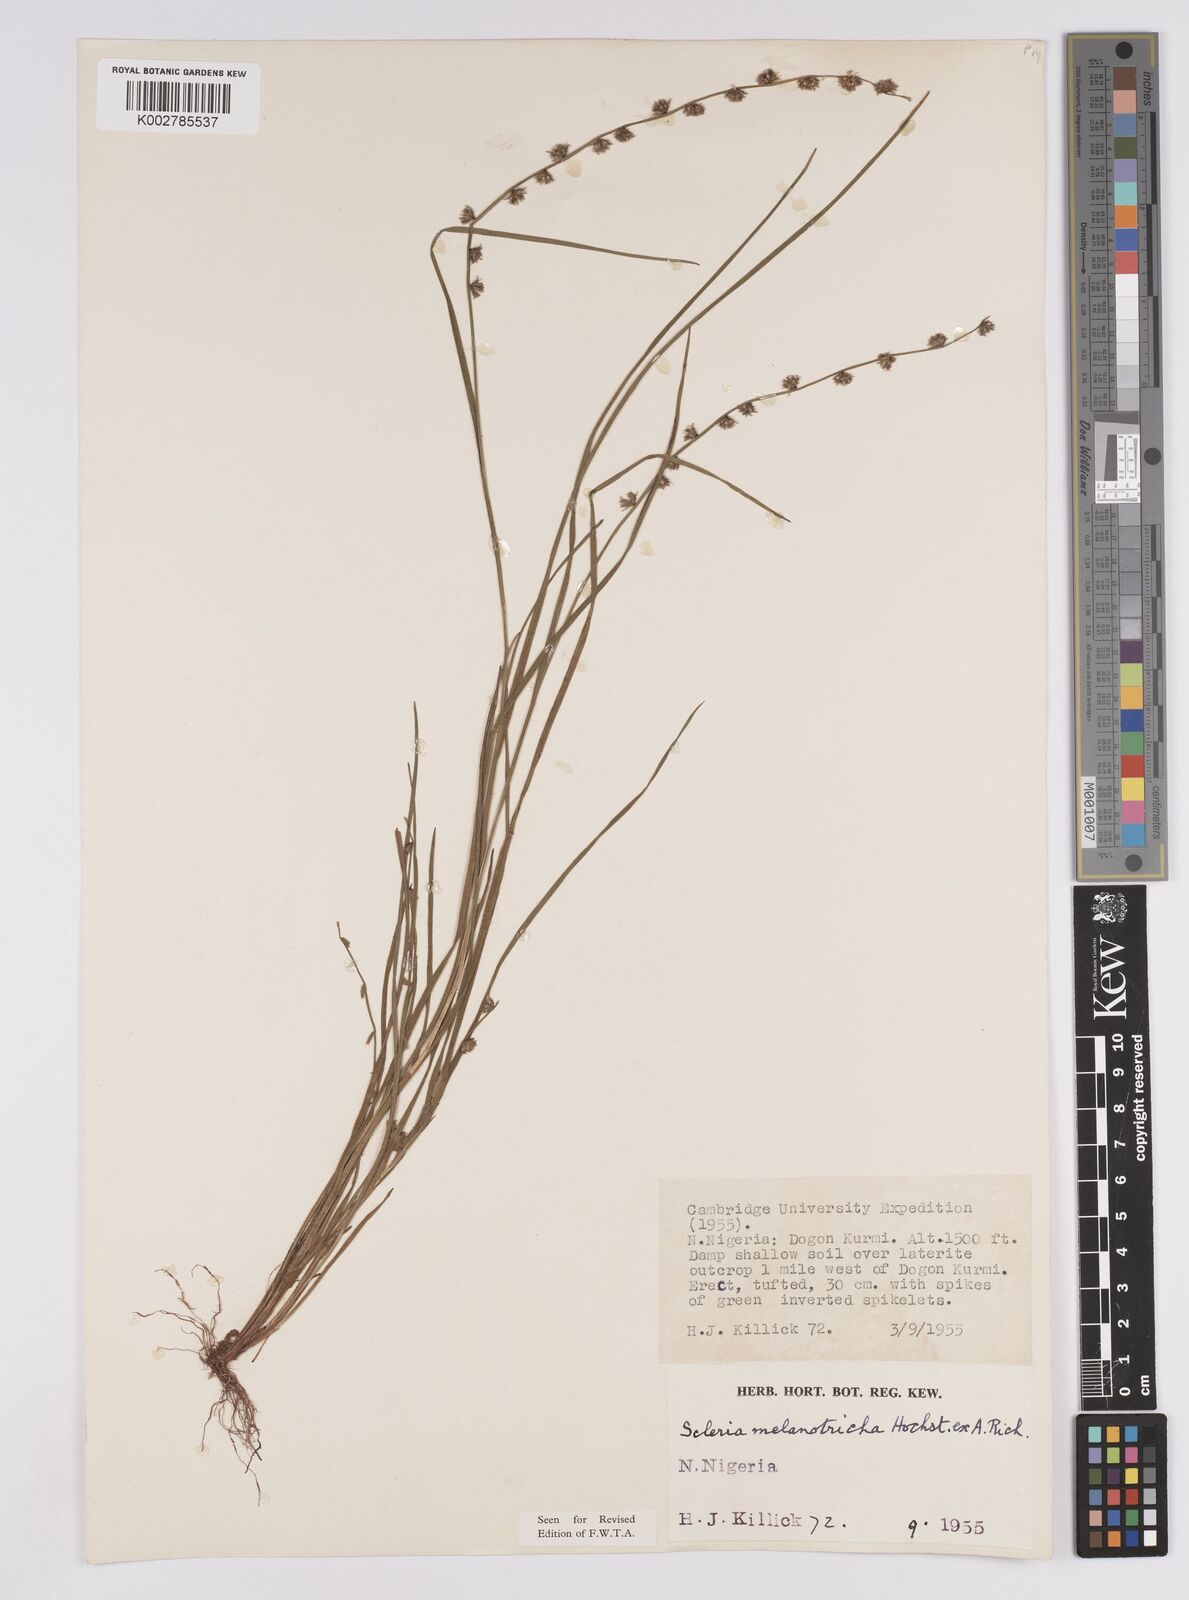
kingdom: Plantae
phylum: Tracheophyta
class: Liliopsida
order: Poales
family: Cyperaceae
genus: Scleria
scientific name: Scleria melanotricha
